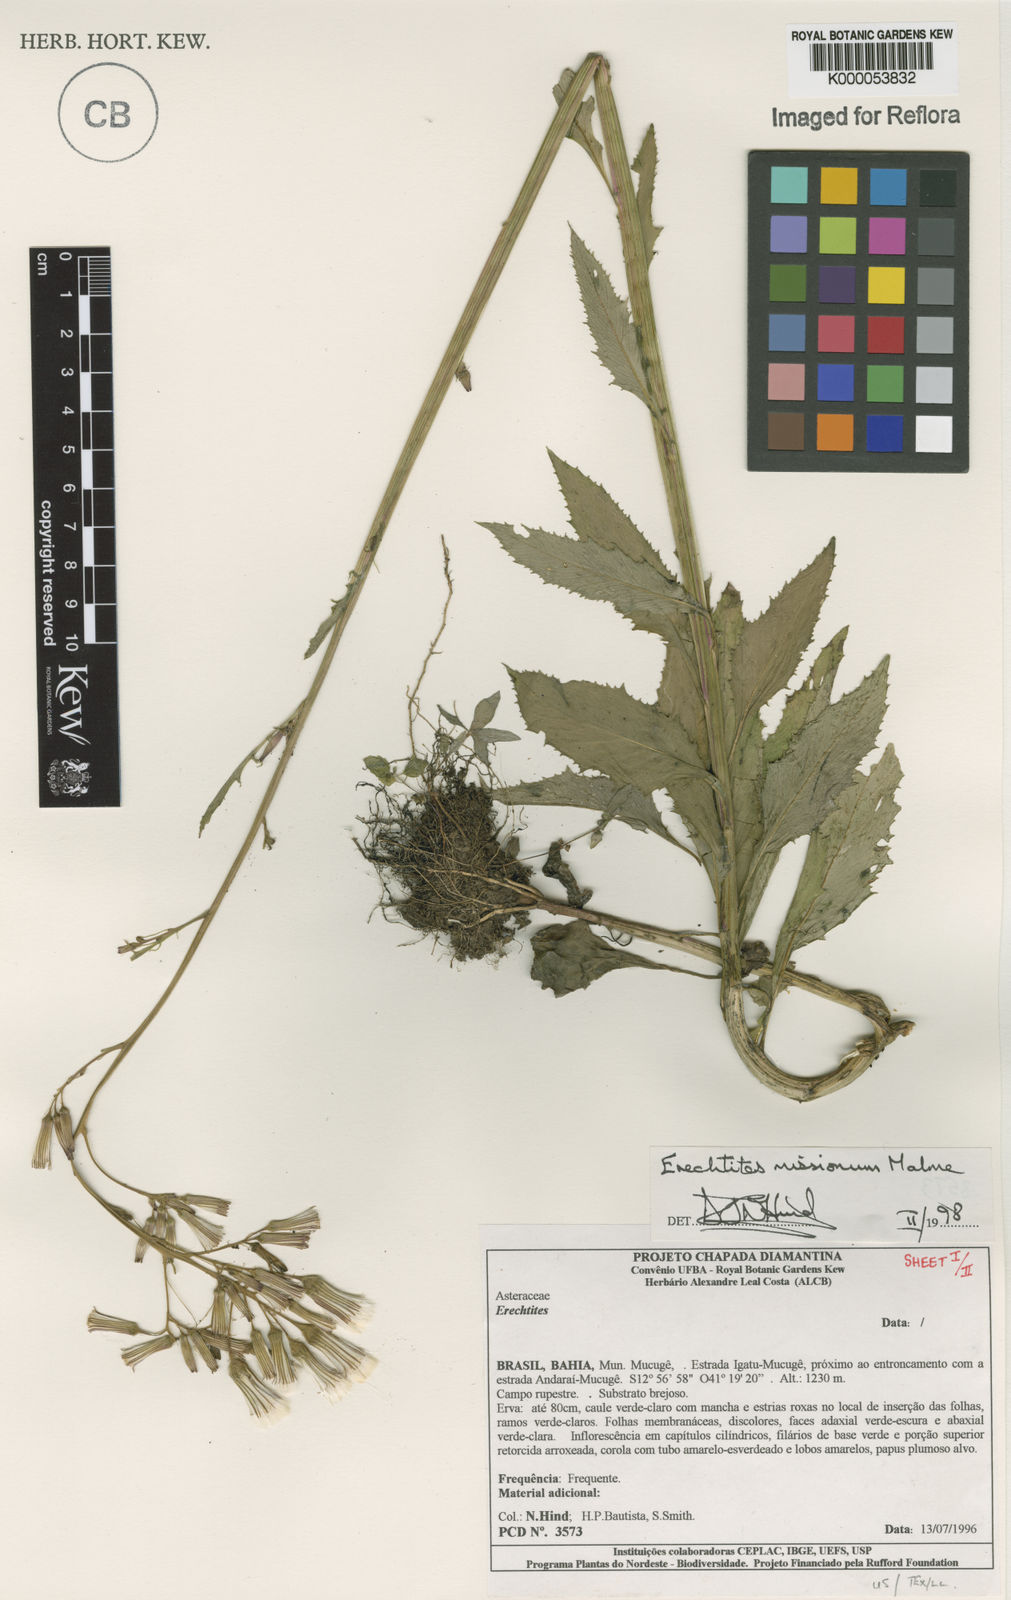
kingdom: Plantae
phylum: Tracheophyta
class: Magnoliopsida
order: Asterales
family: Asteraceae
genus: Erechtites
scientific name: Erechtites missionum
